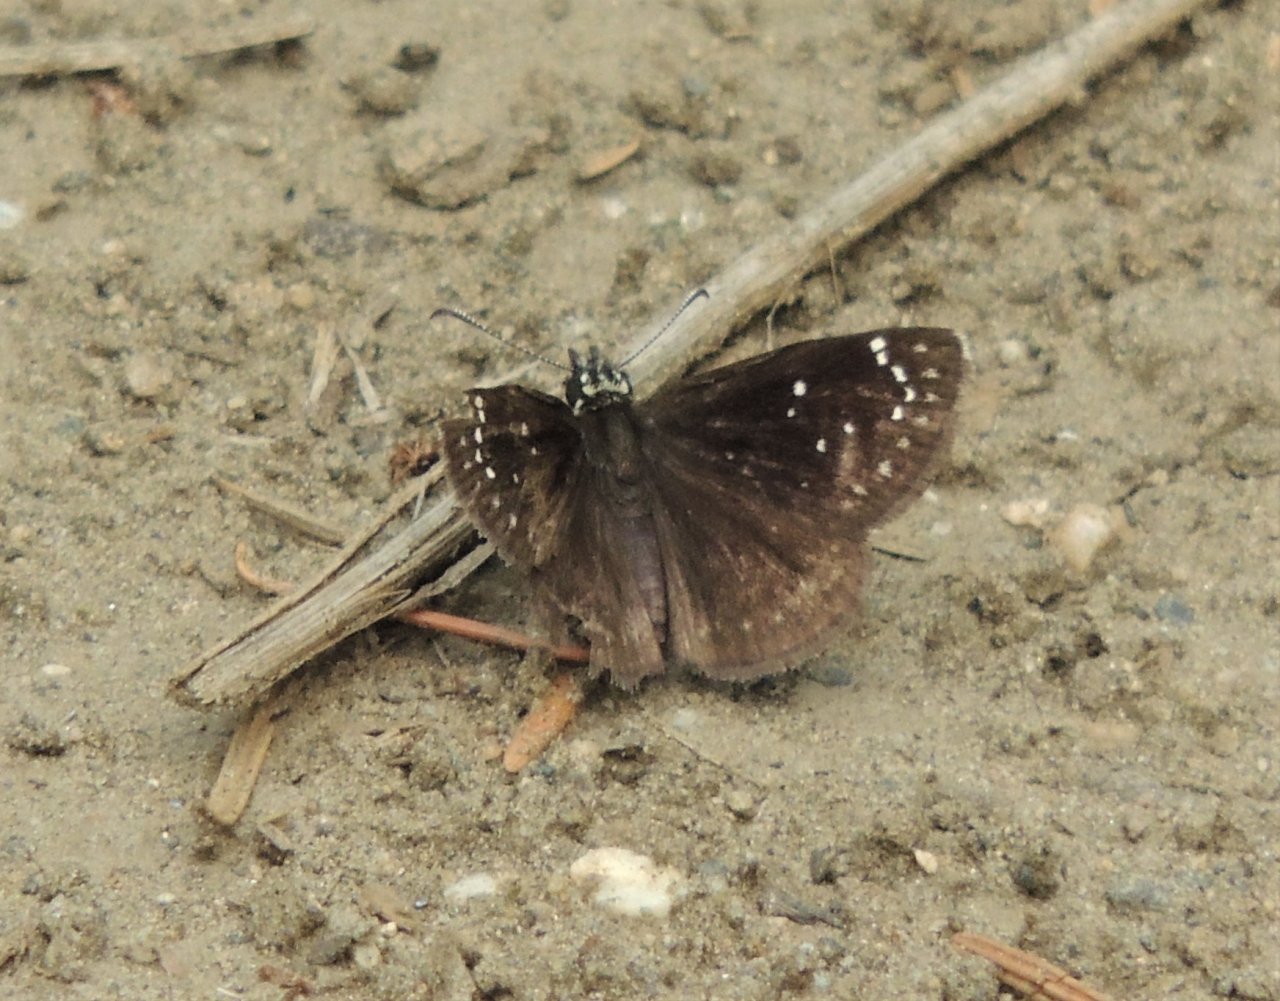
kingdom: Animalia
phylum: Arthropoda
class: Insecta
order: Lepidoptera
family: Hesperiidae
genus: Pholisora
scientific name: Pholisora catullus
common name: Common Sootywing
